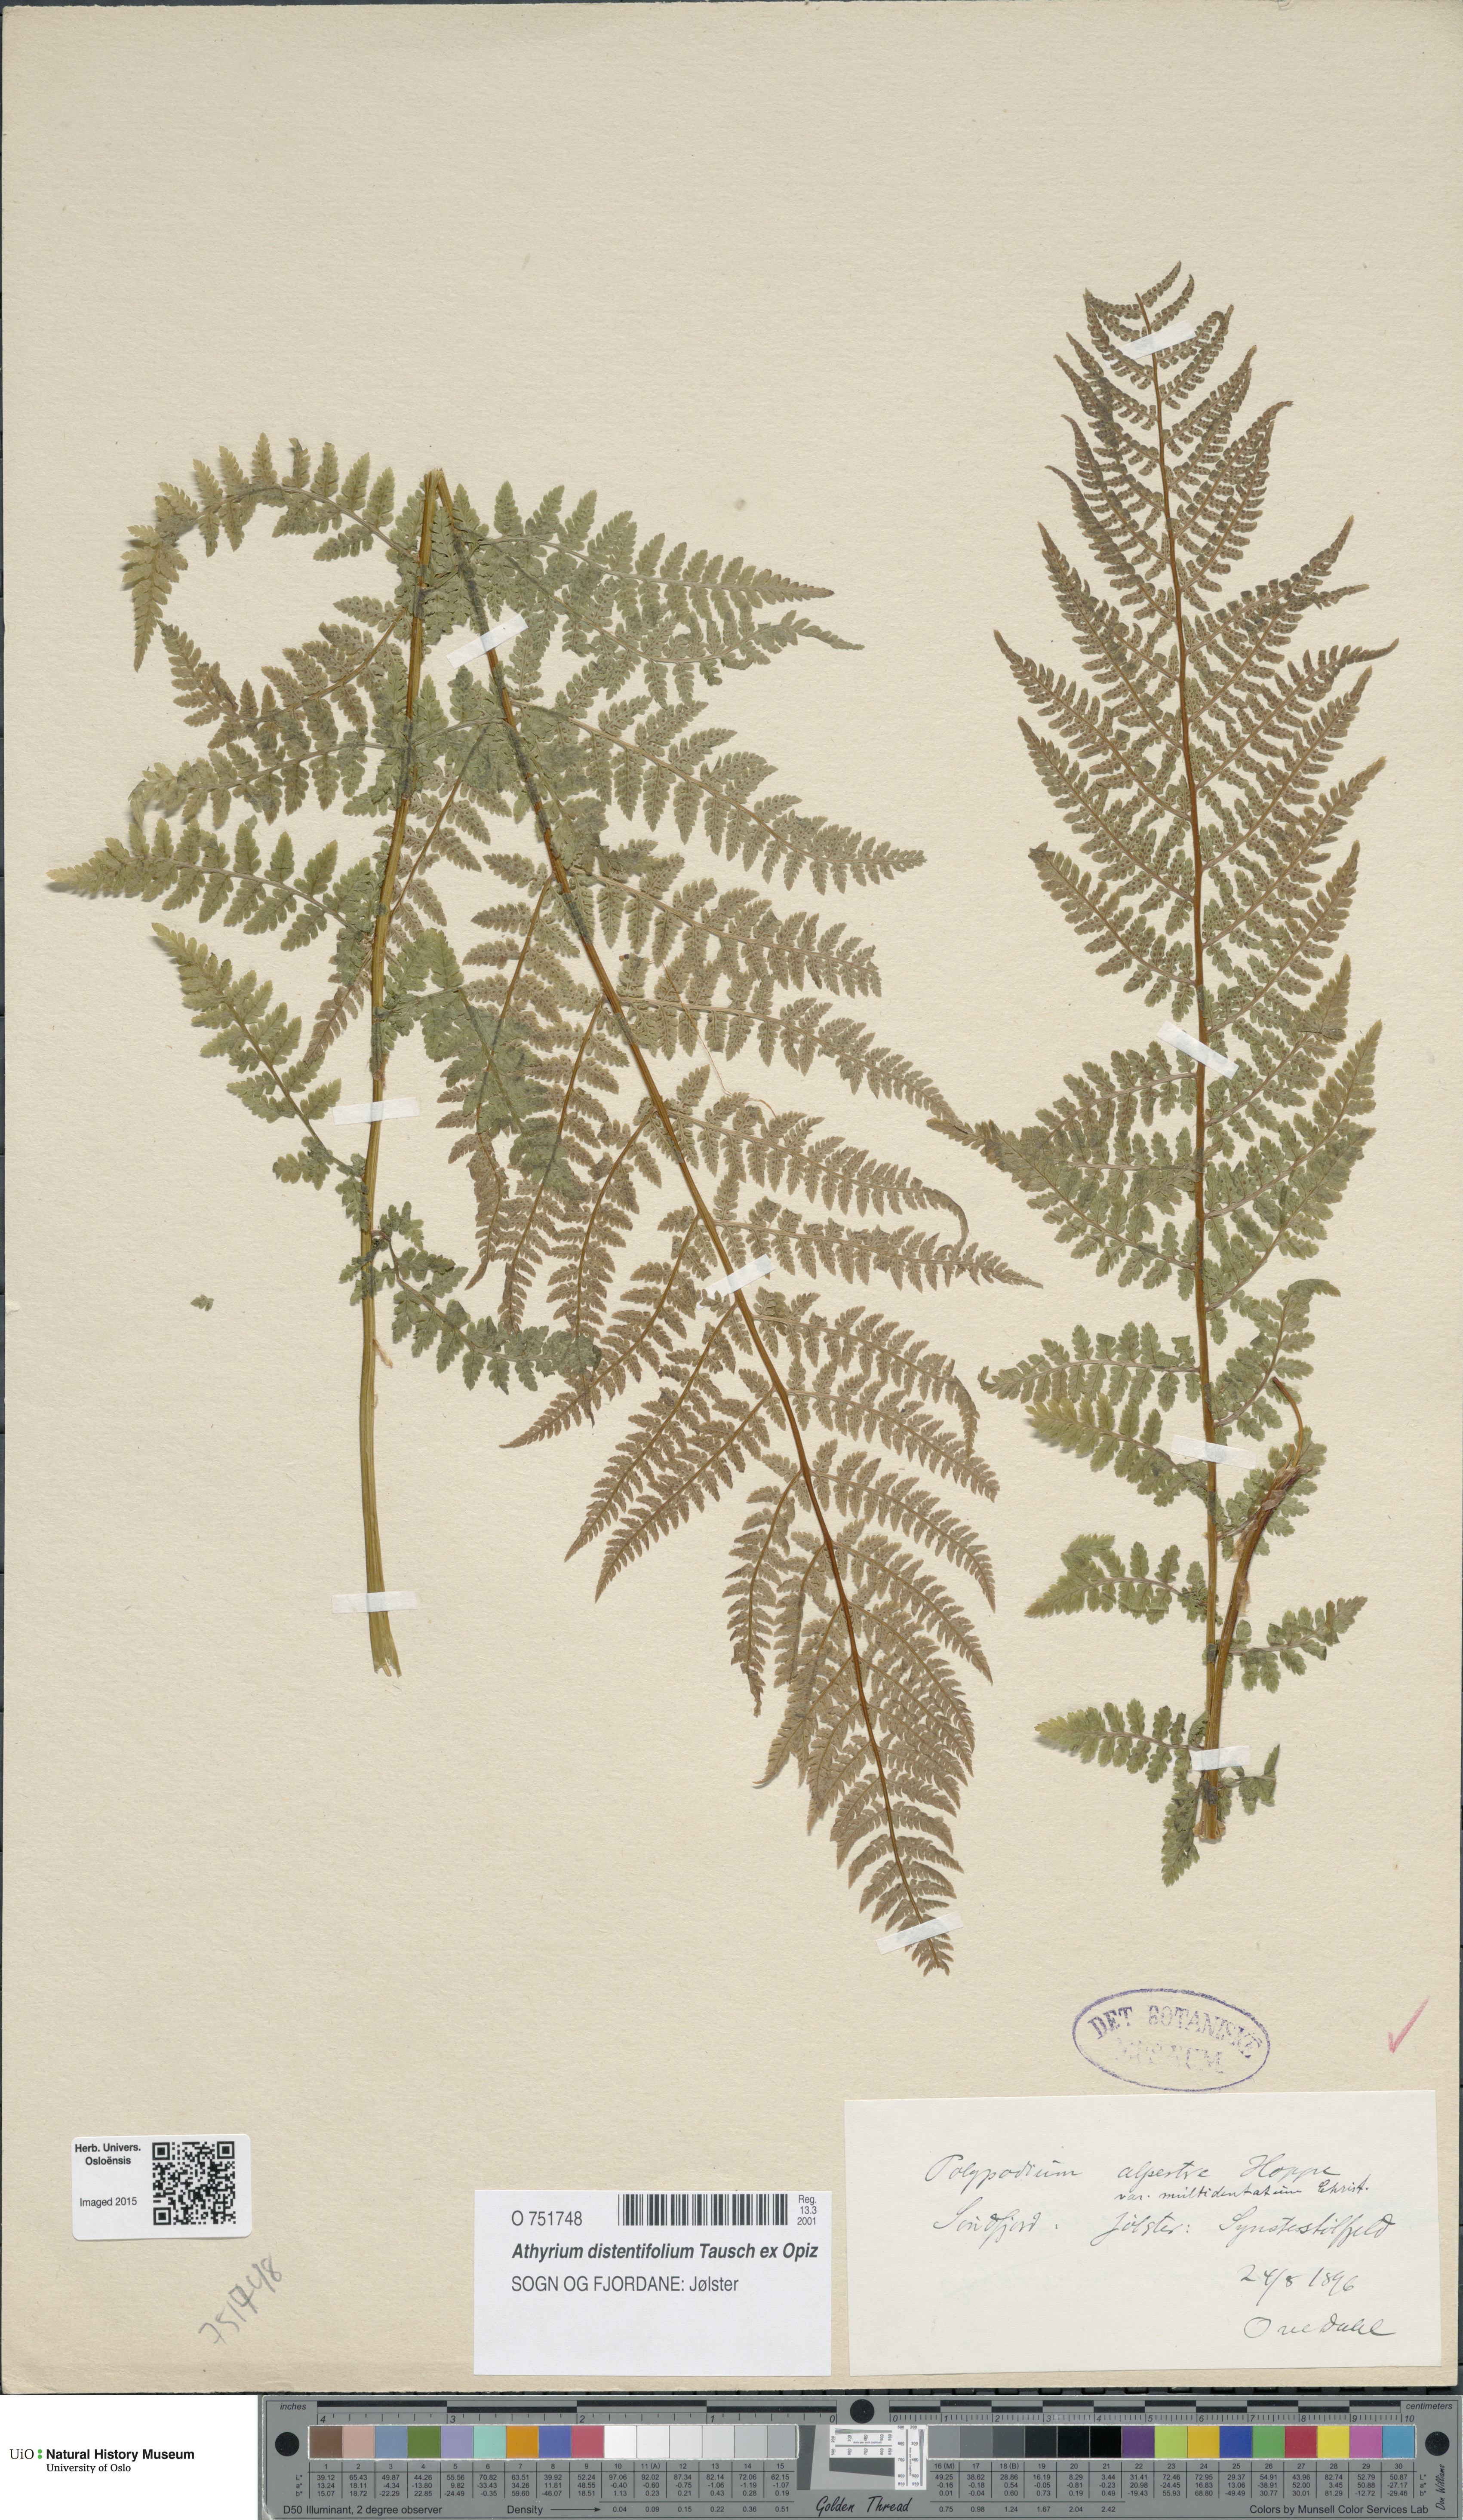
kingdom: Plantae
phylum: Tracheophyta
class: Polypodiopsida
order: Polypodiales
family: Athyriaceae
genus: Pseudathyrium
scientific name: Pseudathyrium alpestre
